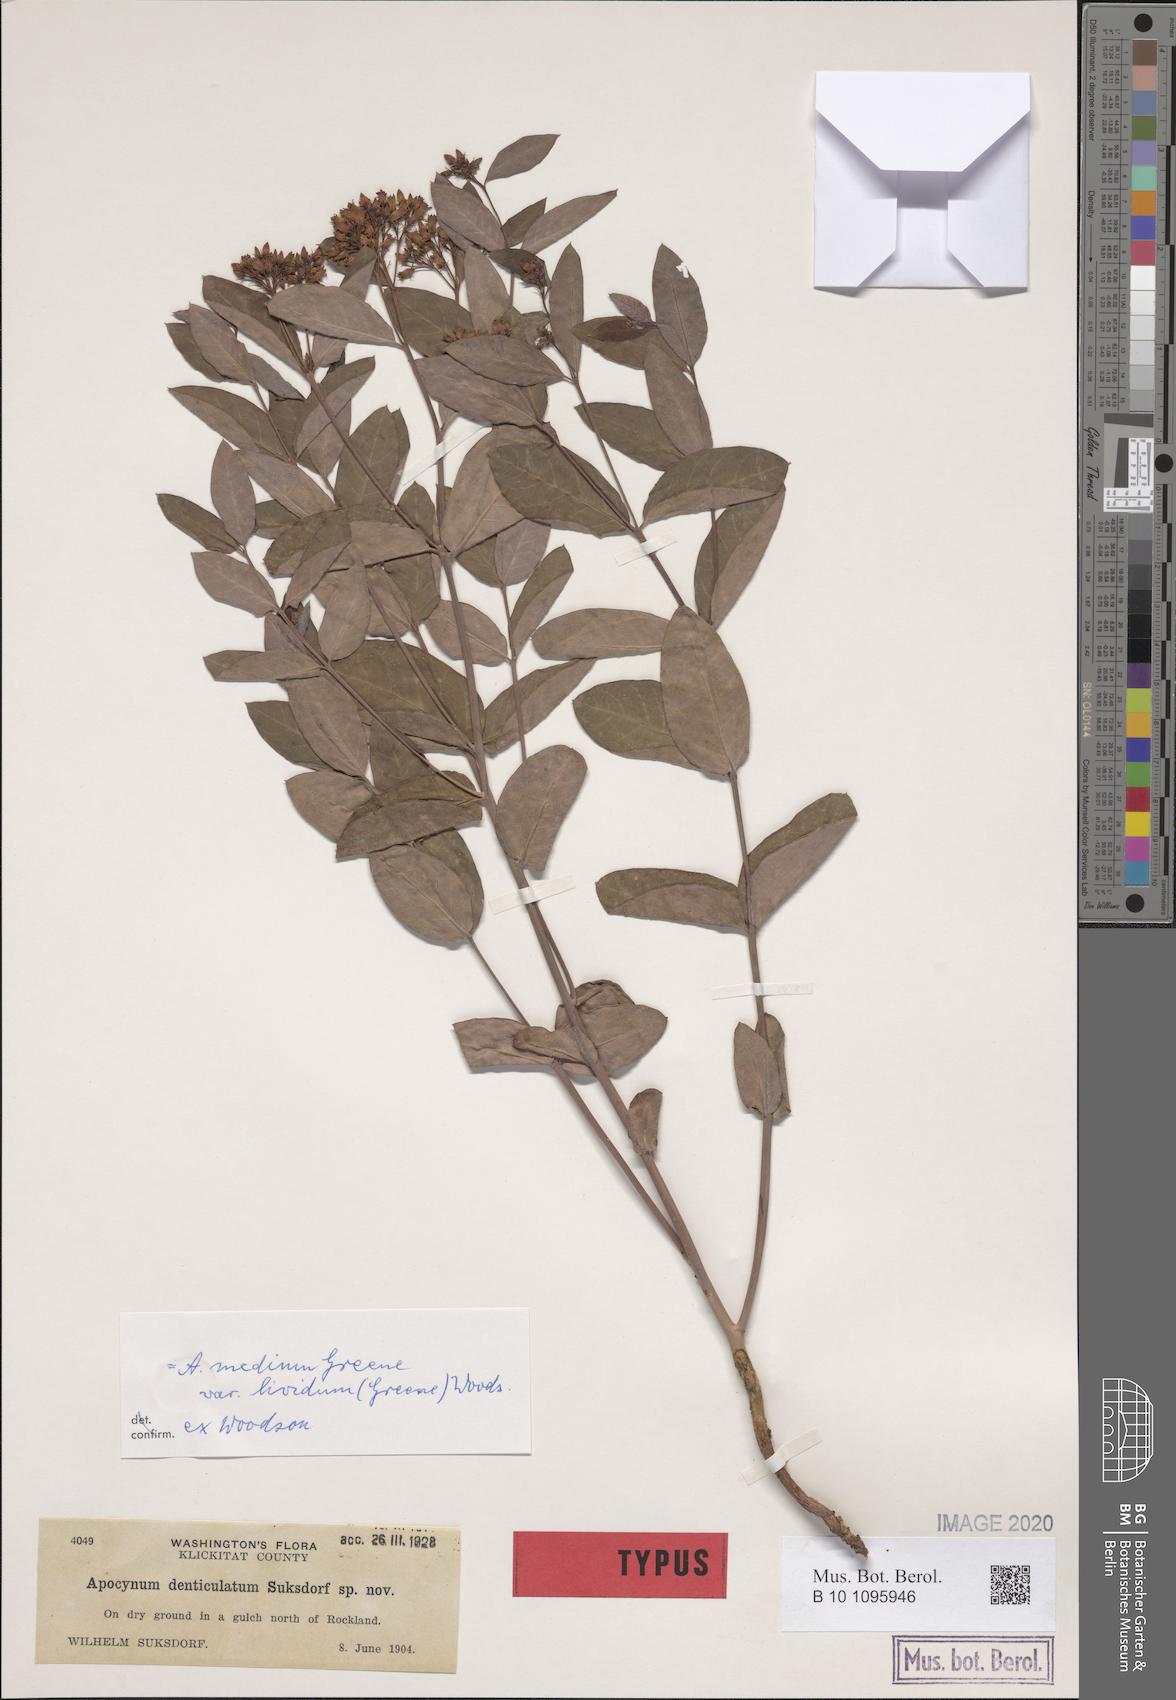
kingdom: Plantae
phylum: Tracheophyta
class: Magnoliopsida
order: Gentianales
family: Apocynaceae
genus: Apocynum
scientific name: Apocynum floribundum
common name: Hybrid dogbane
